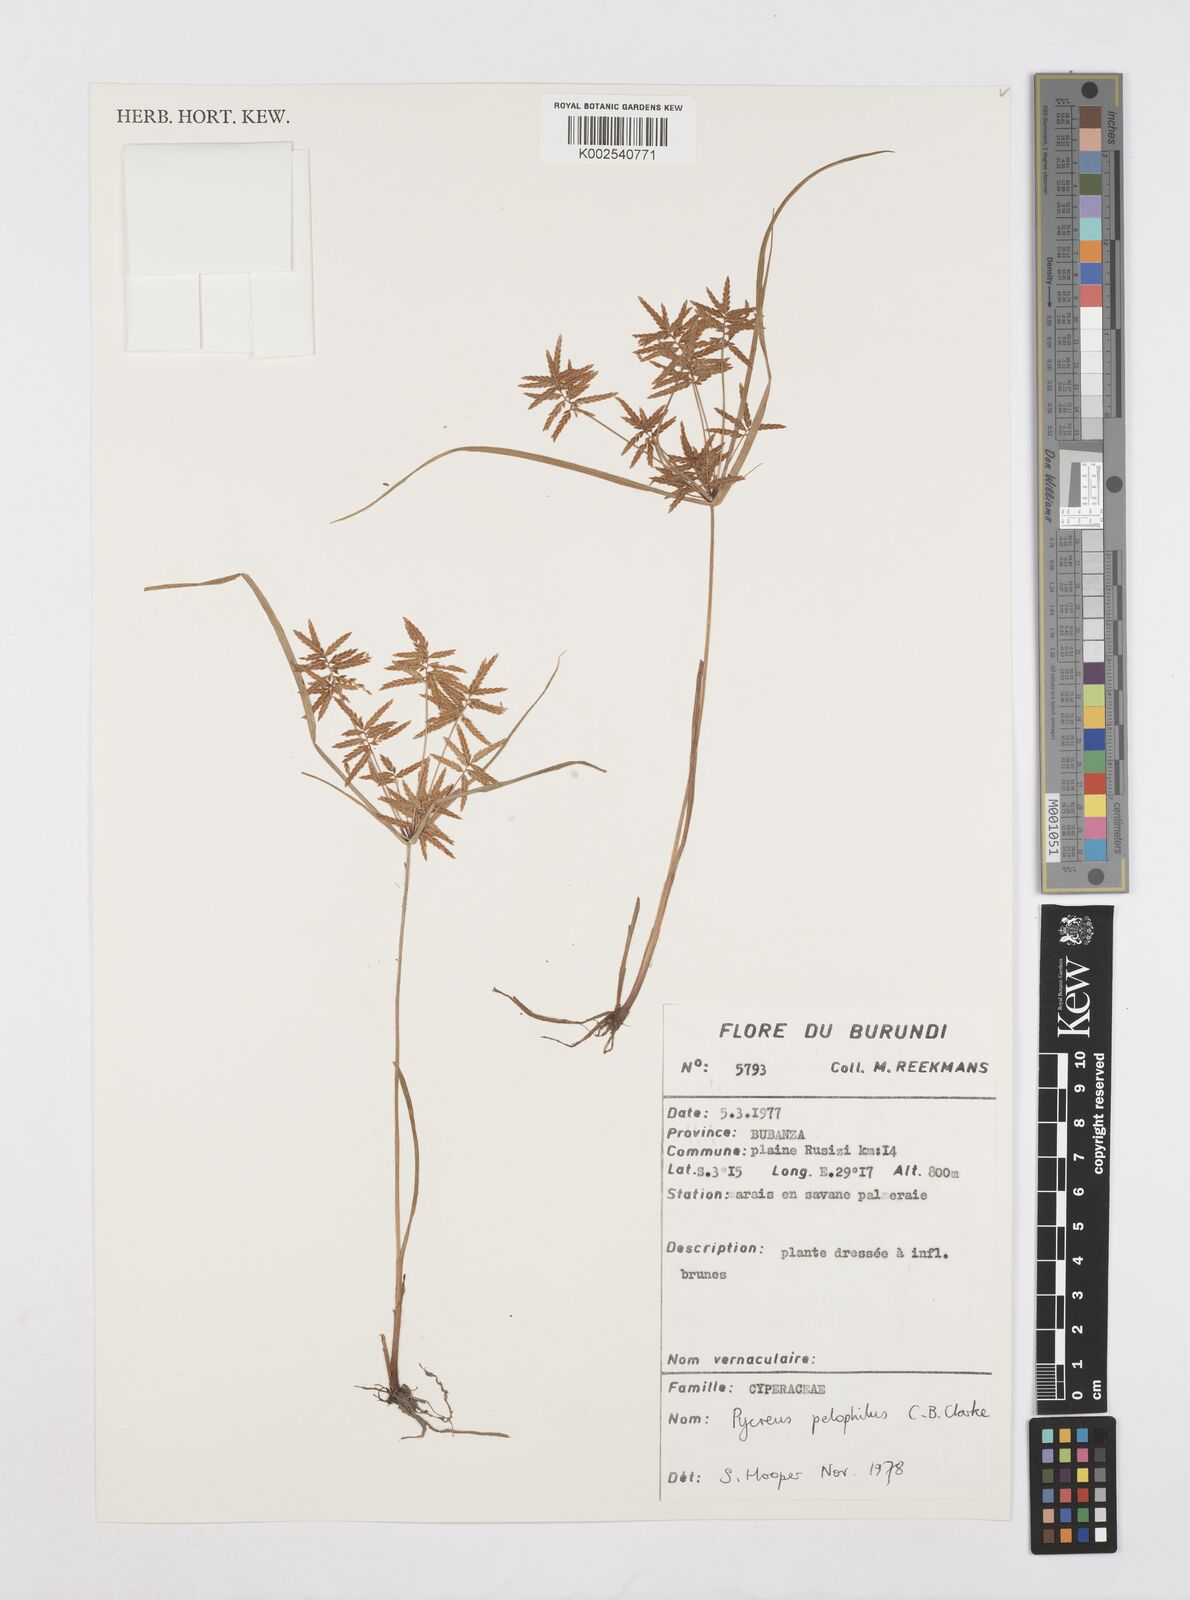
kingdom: Plantae
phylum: Tracheophyta
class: Liliopsida
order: Poales
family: Cyperaceae
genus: Cyperus
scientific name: Cyperus pelophilus
